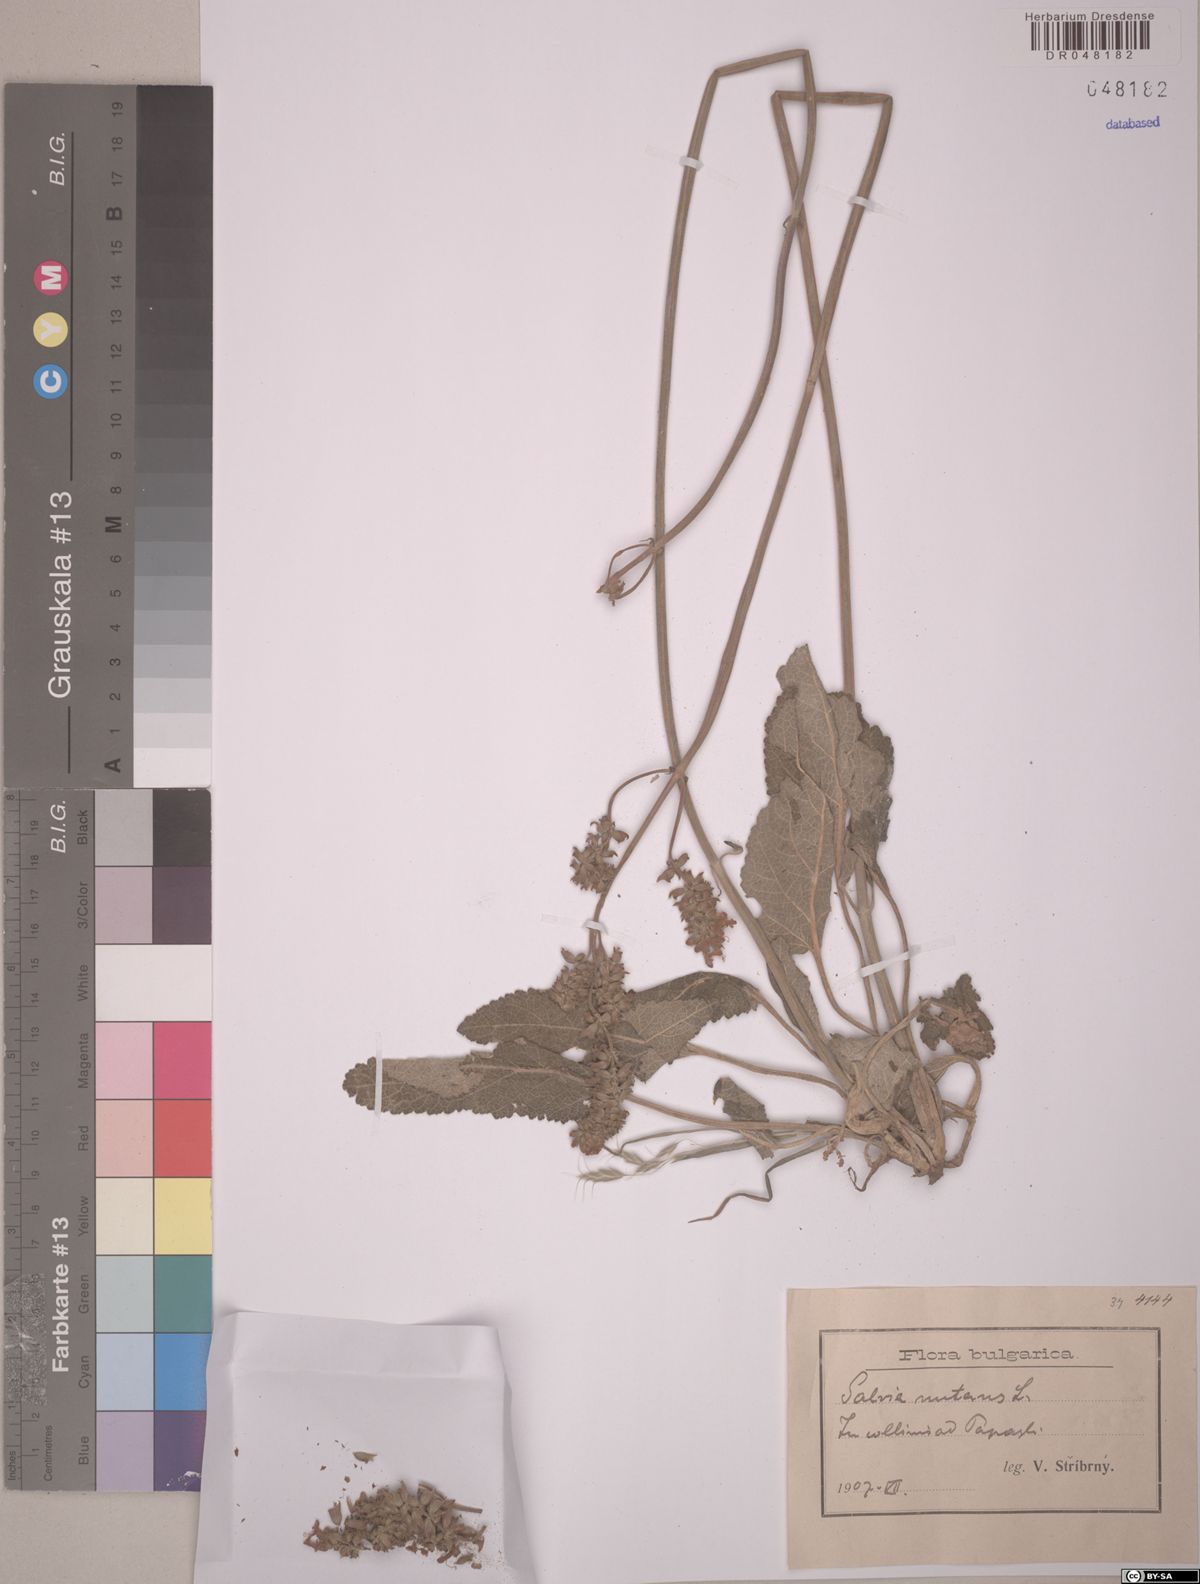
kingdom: Plantae
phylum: Tracheophyta
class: Magnoliopsida
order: Lamiales
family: Lamiaceae
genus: Salvia
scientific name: Salvia nutans
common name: Nodding sage
